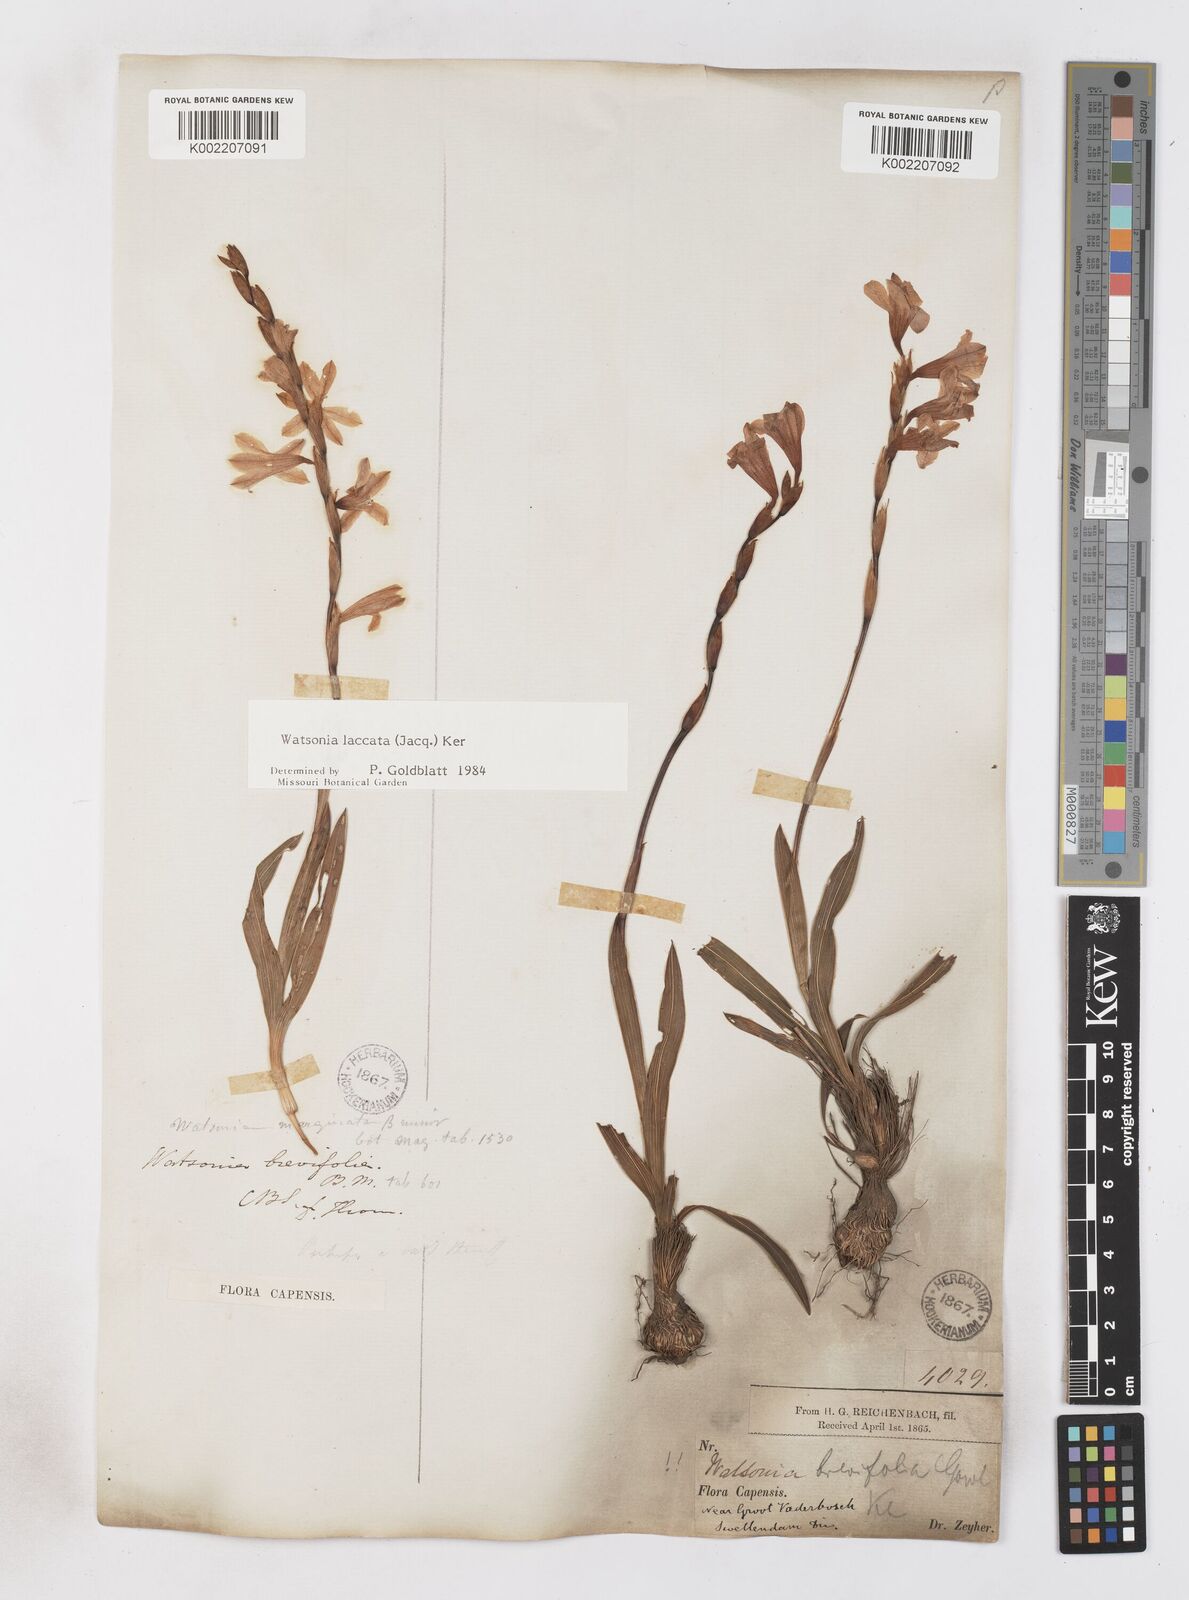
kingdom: Plantae
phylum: Tracheophyta
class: Liliopsida
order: Asparagales
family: Iridaceae
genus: Watsonia
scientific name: Watsonia laccata
